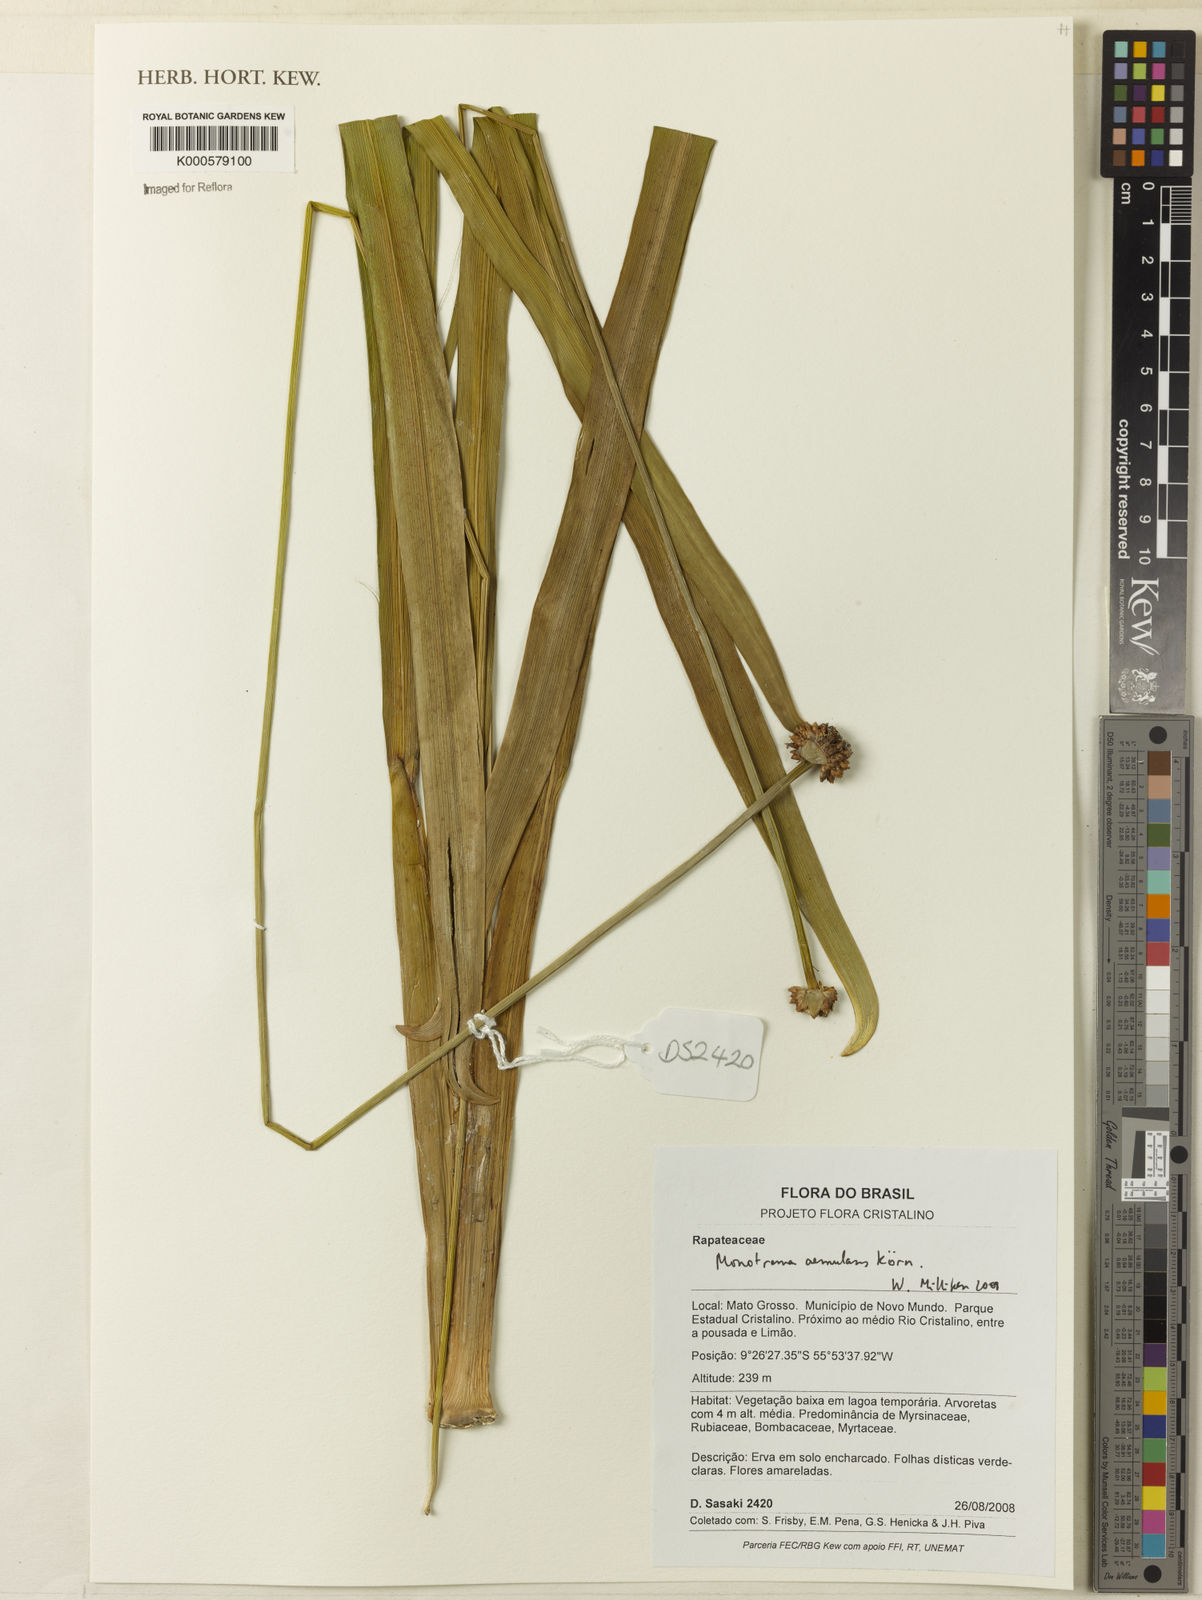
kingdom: Plantae
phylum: Tracheophyta
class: Liliopsida
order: Poales
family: Rapateaceae
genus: Monotrema
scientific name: Monotrema
